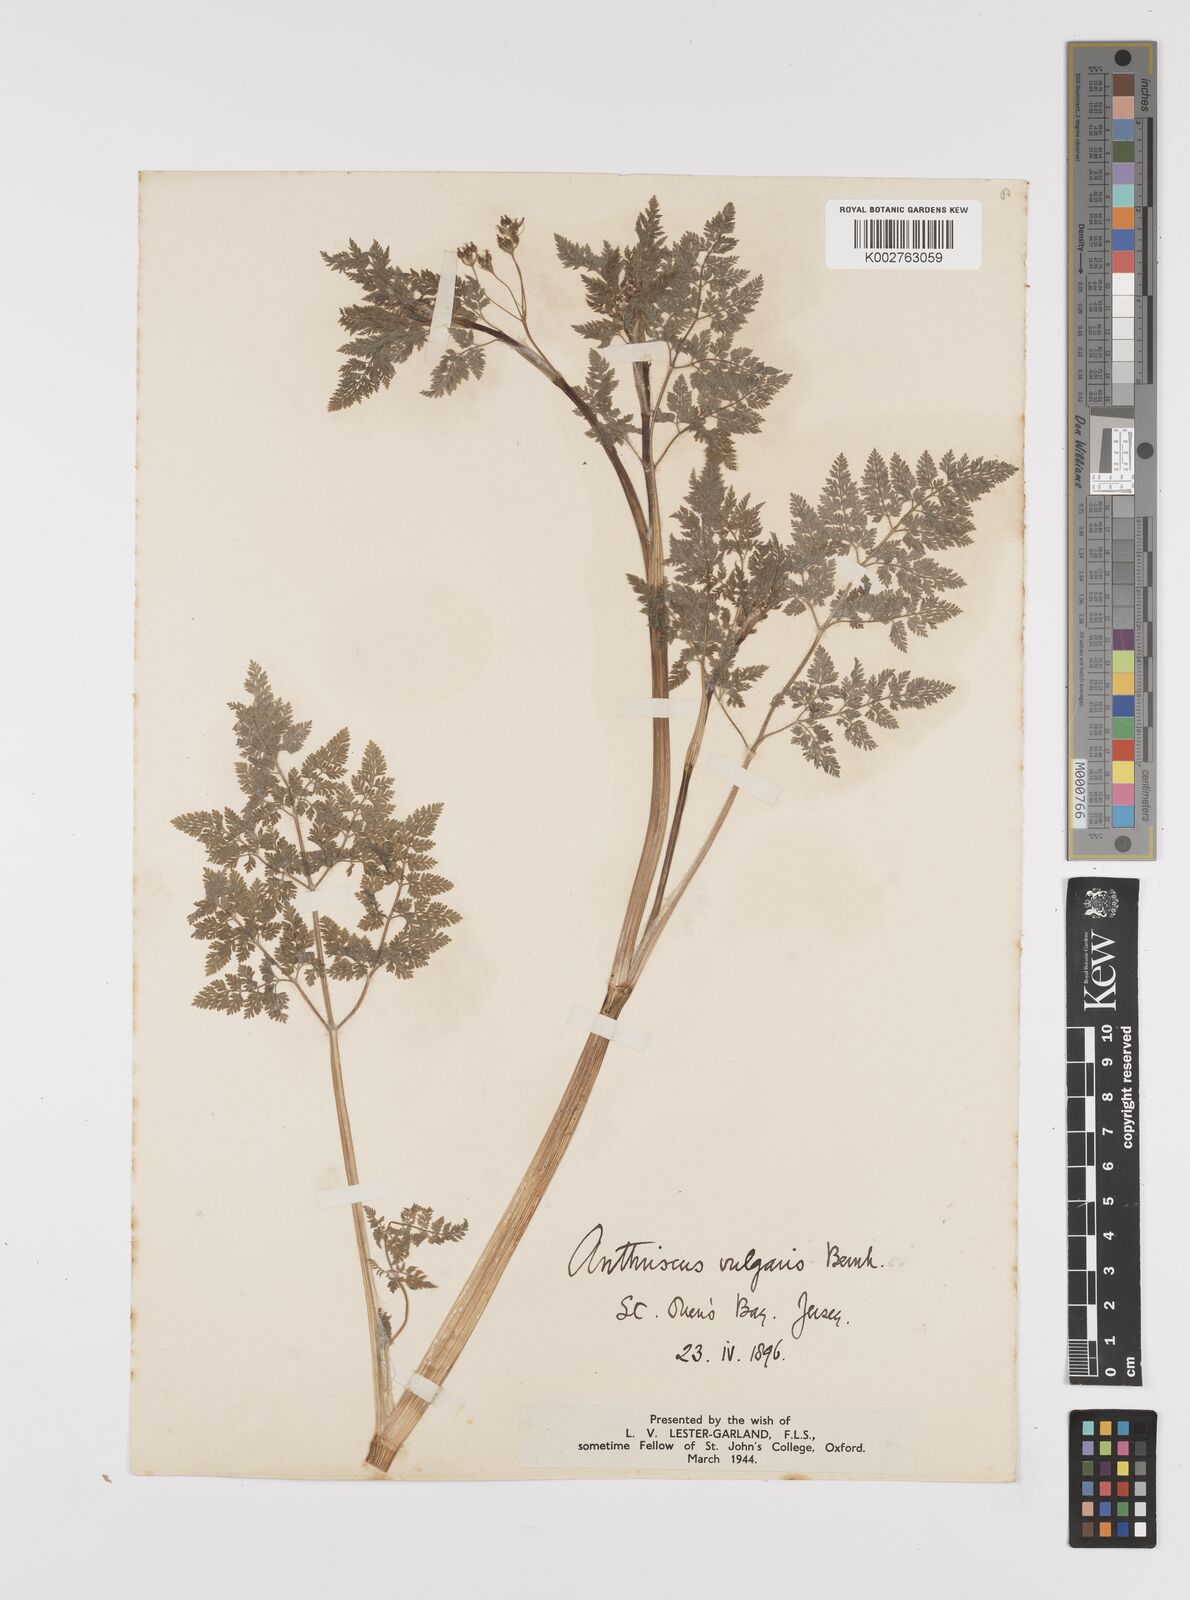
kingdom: Plantae
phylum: Tracheophyta
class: Magnoliopsida
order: Apiales
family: Apiaceae
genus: Anthriscus
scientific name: Anthriscus caucalis
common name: Bur chervil
